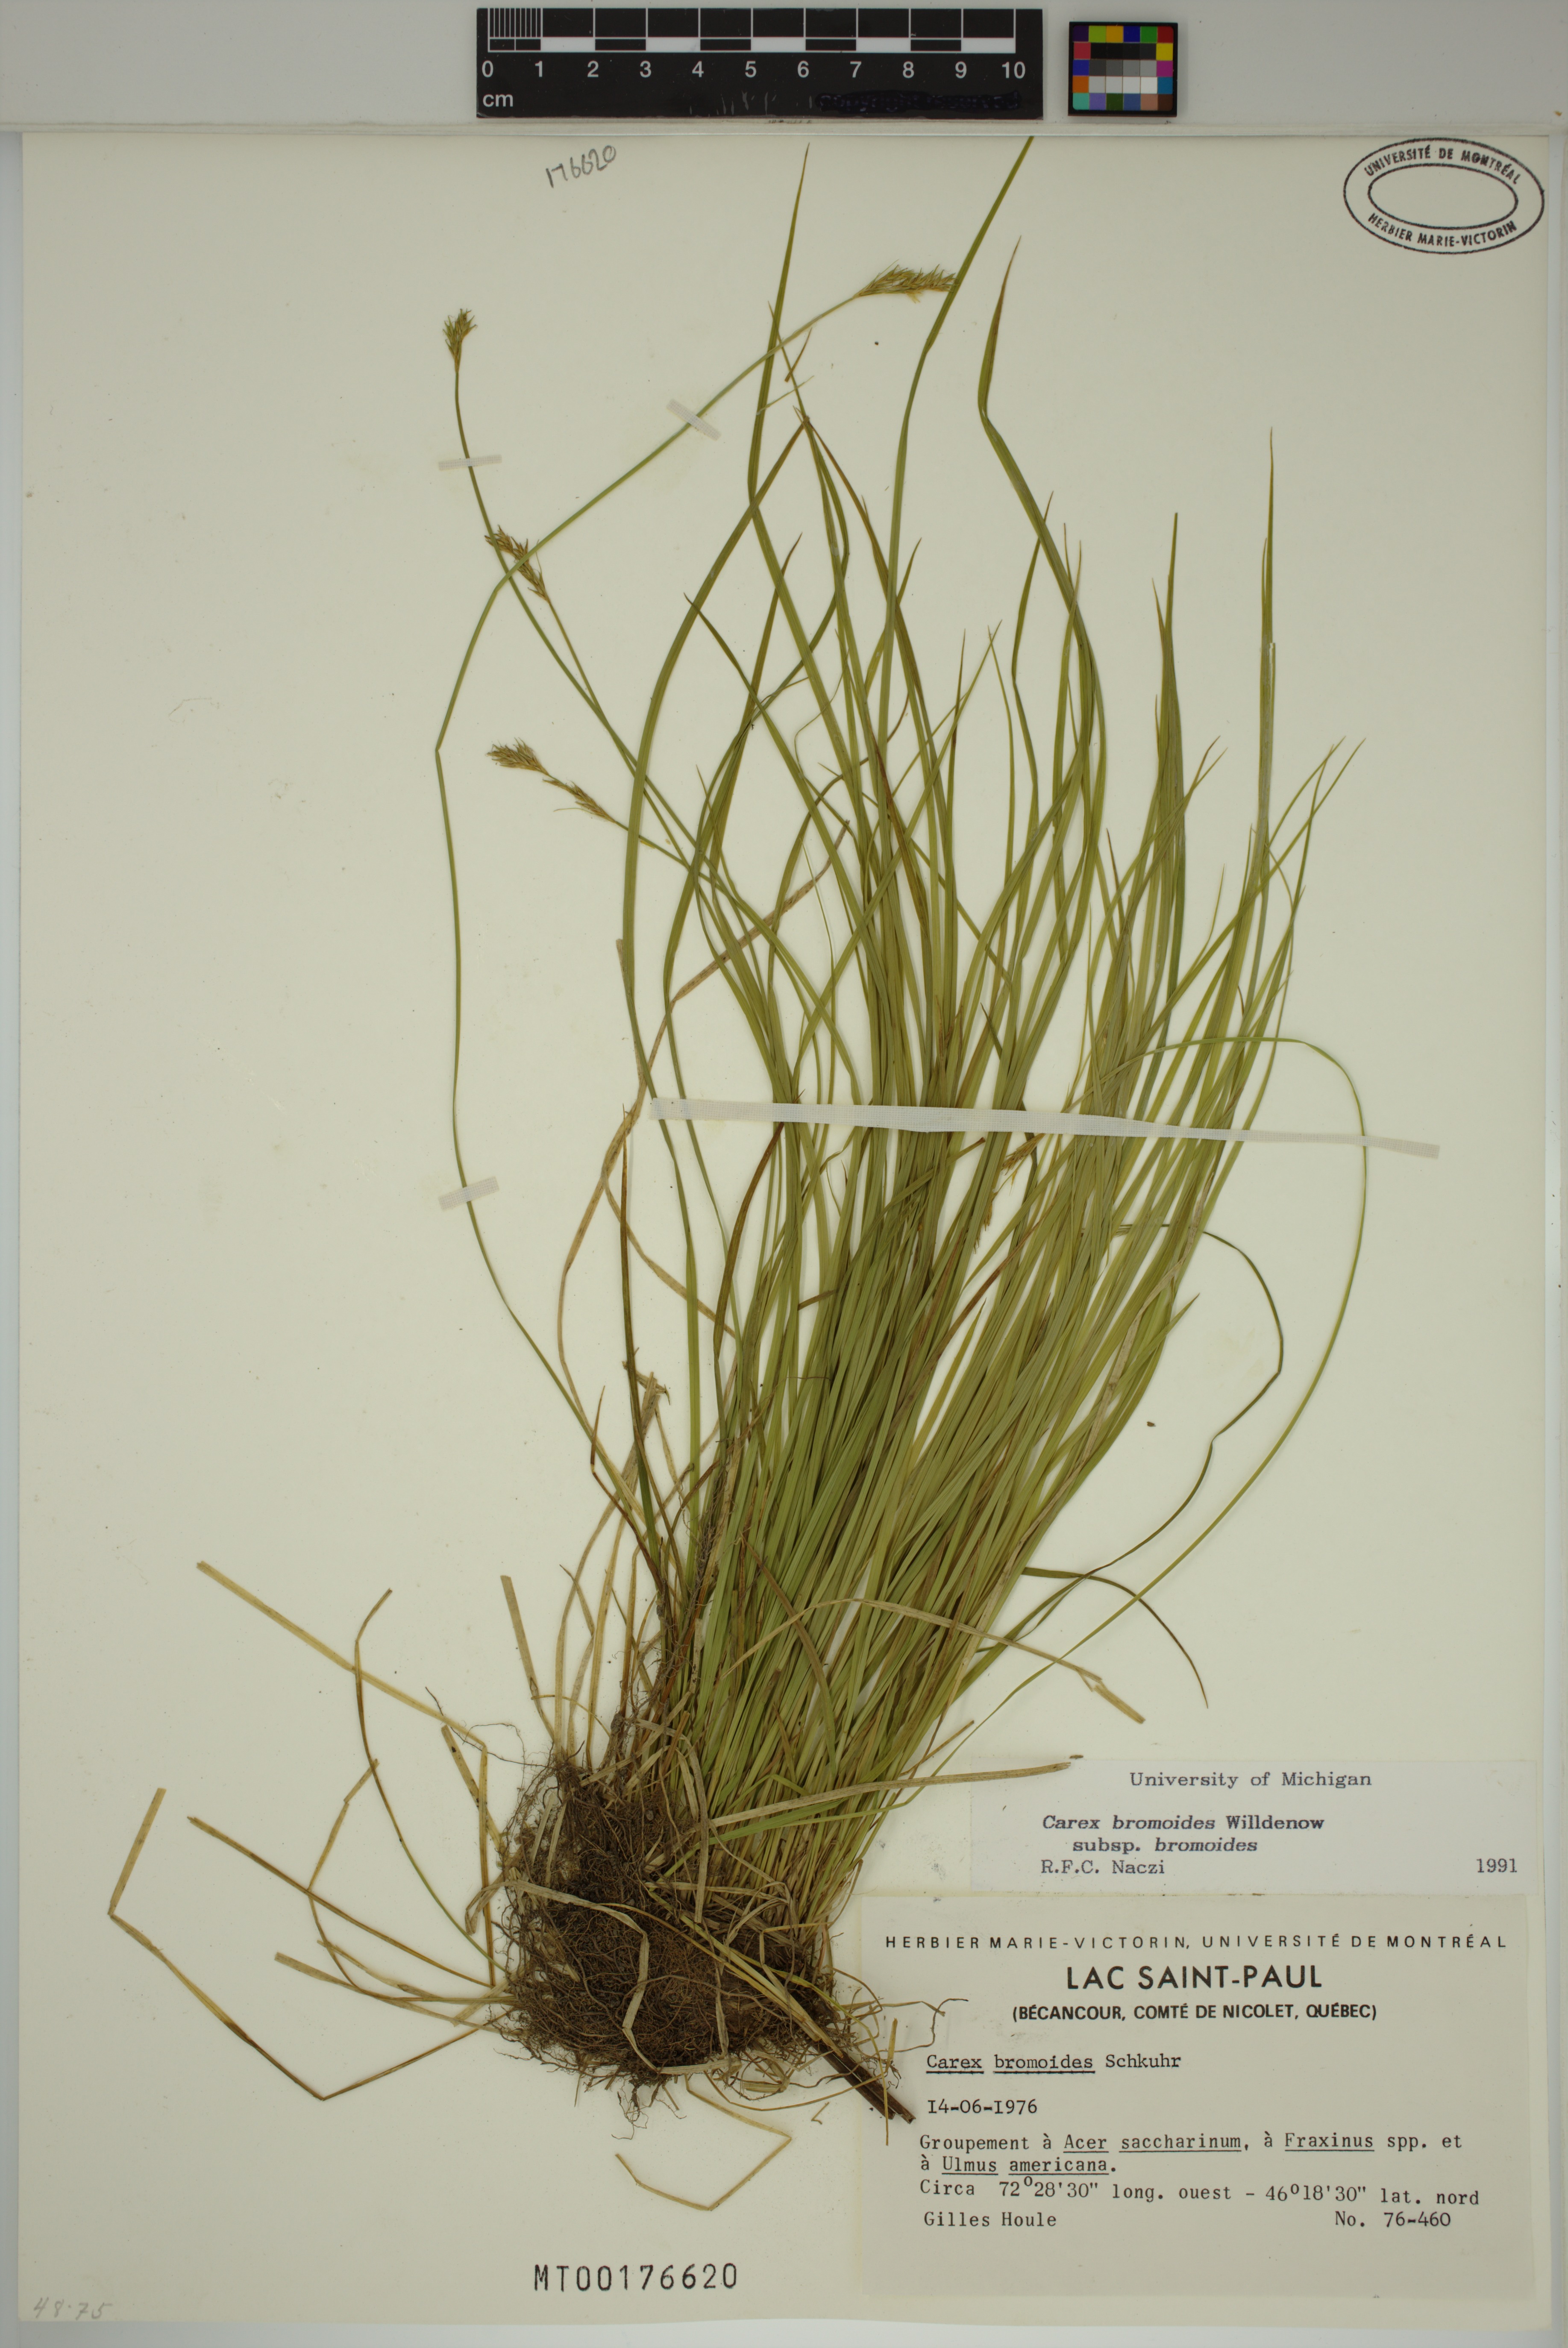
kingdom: Plantae
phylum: Tracheophyta
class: Liliopsida
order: Poales
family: Cyperaceae
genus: Carex
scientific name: Carex bromoides
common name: Brome hummock sedge
